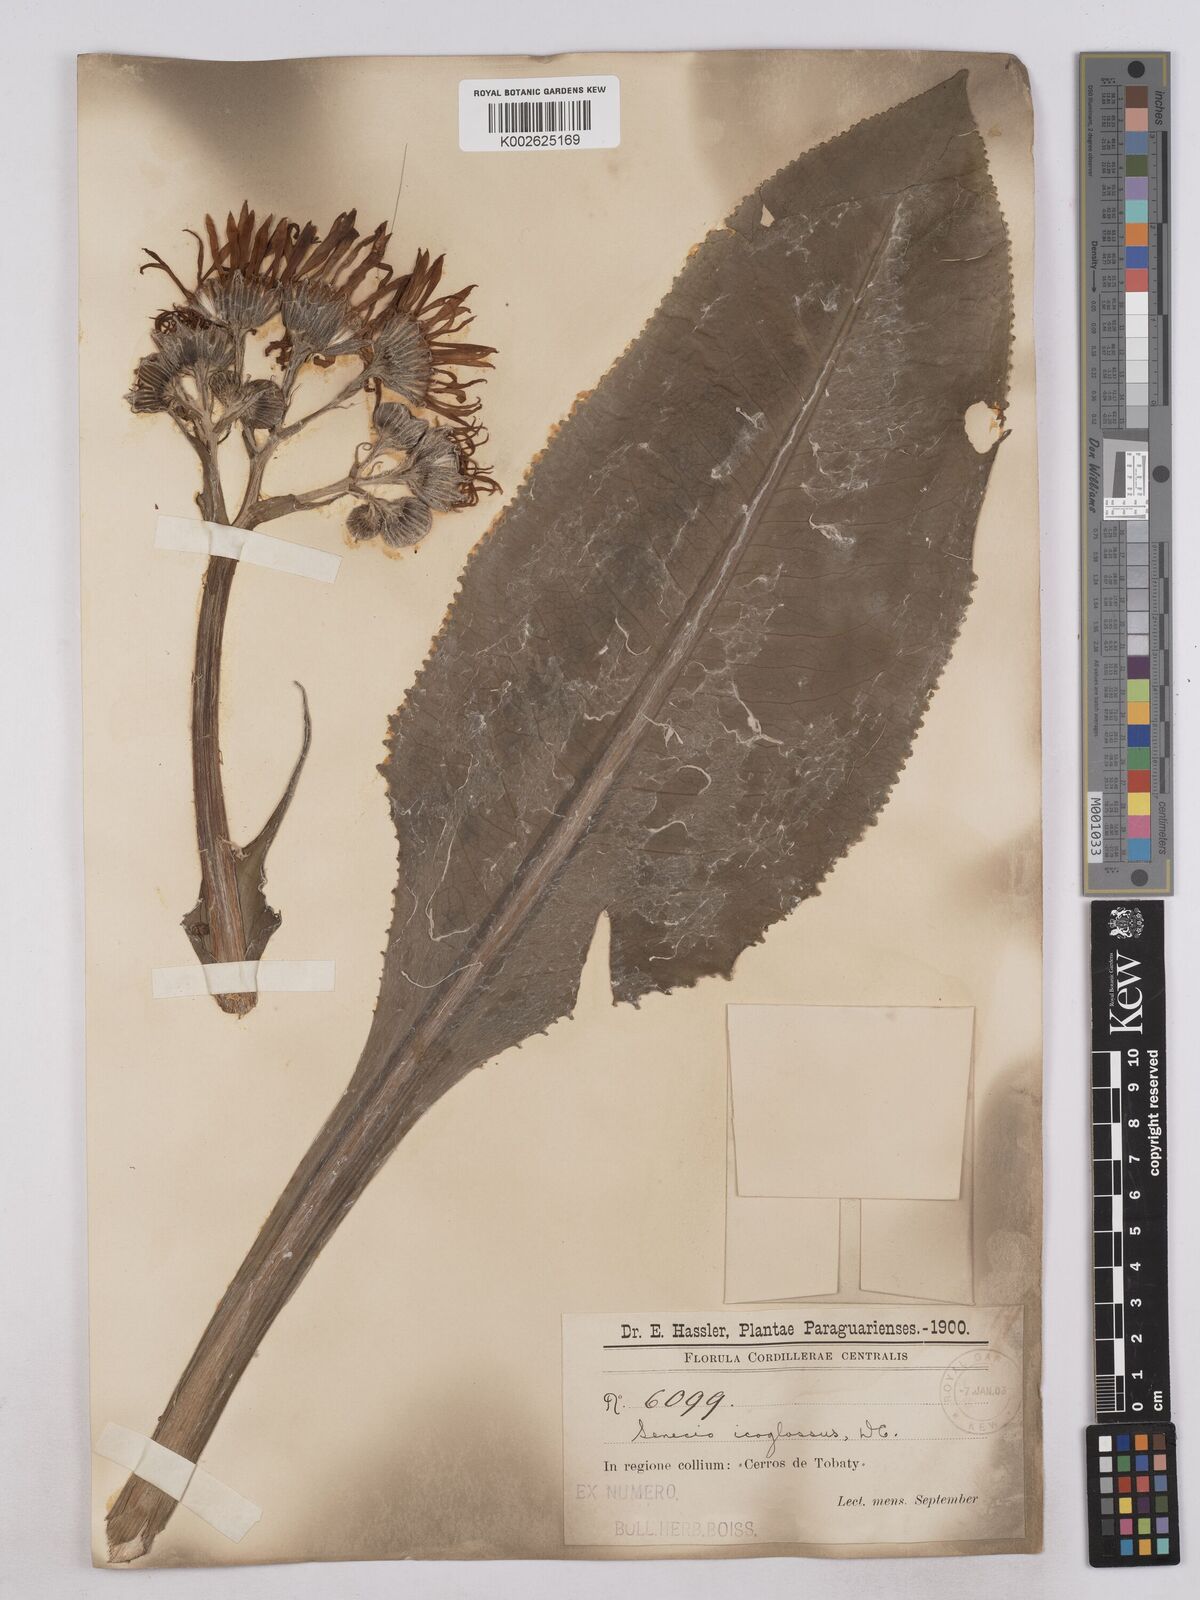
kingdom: Plantae
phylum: Tracheophyta
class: Magnoliopsida
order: Asterales
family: Asteraceae
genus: Senecio
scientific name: Senecio icoglossus
